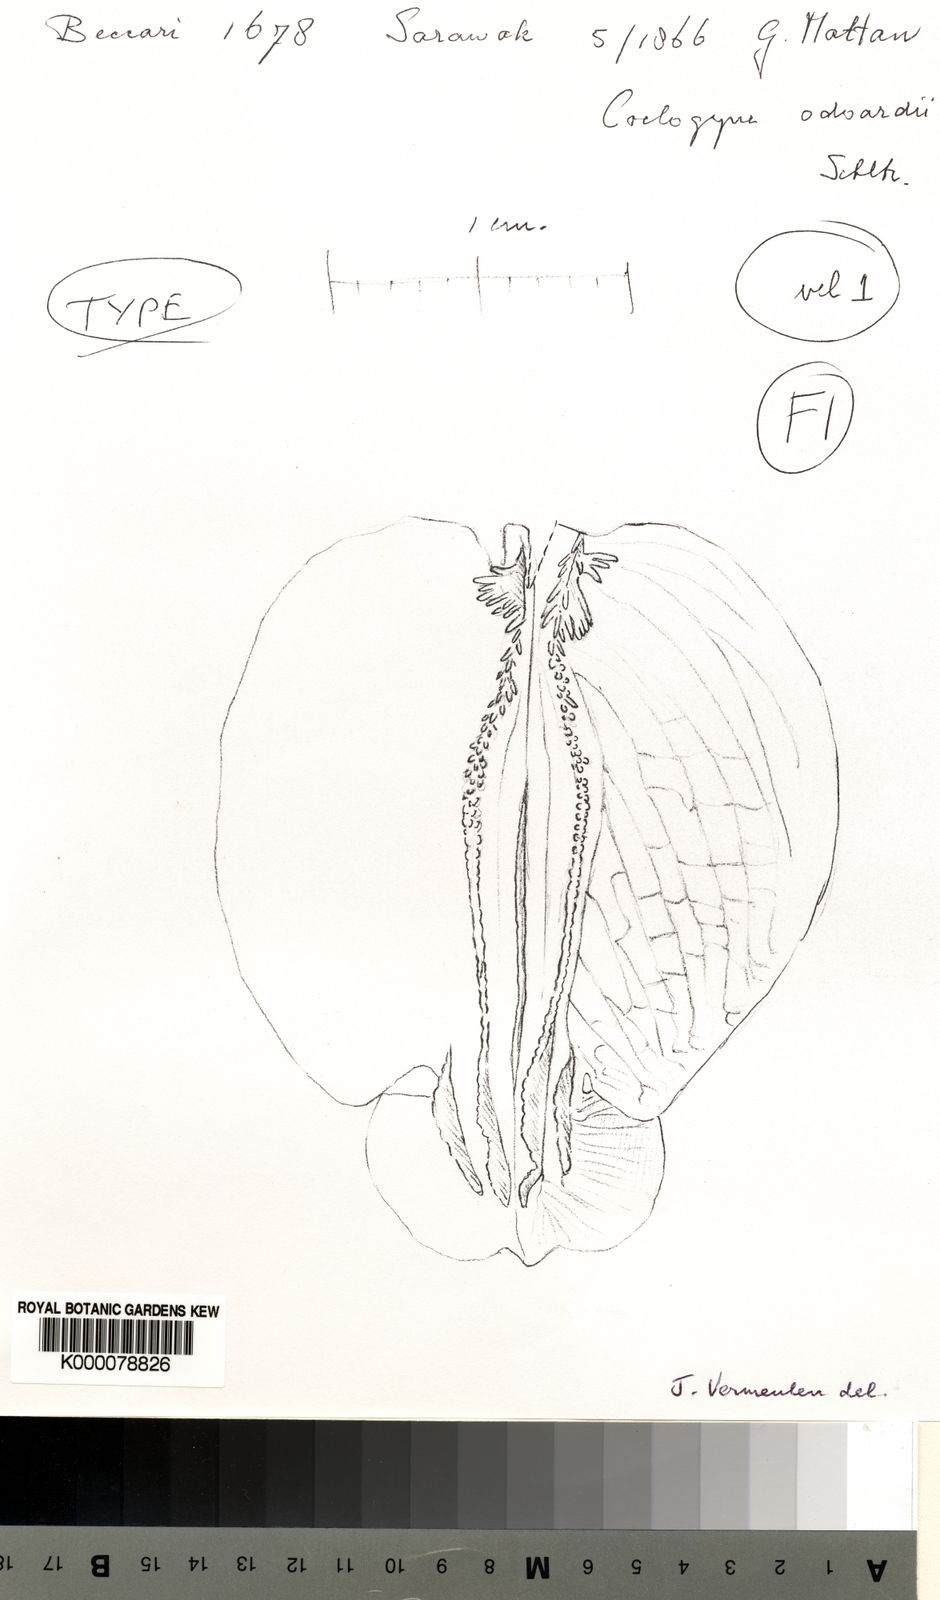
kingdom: Plantae
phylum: Tracheophyta
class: Liliopsida
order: Asparagales
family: Orchidaceae
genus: Coelogyne
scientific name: Coelogyne odoardi
